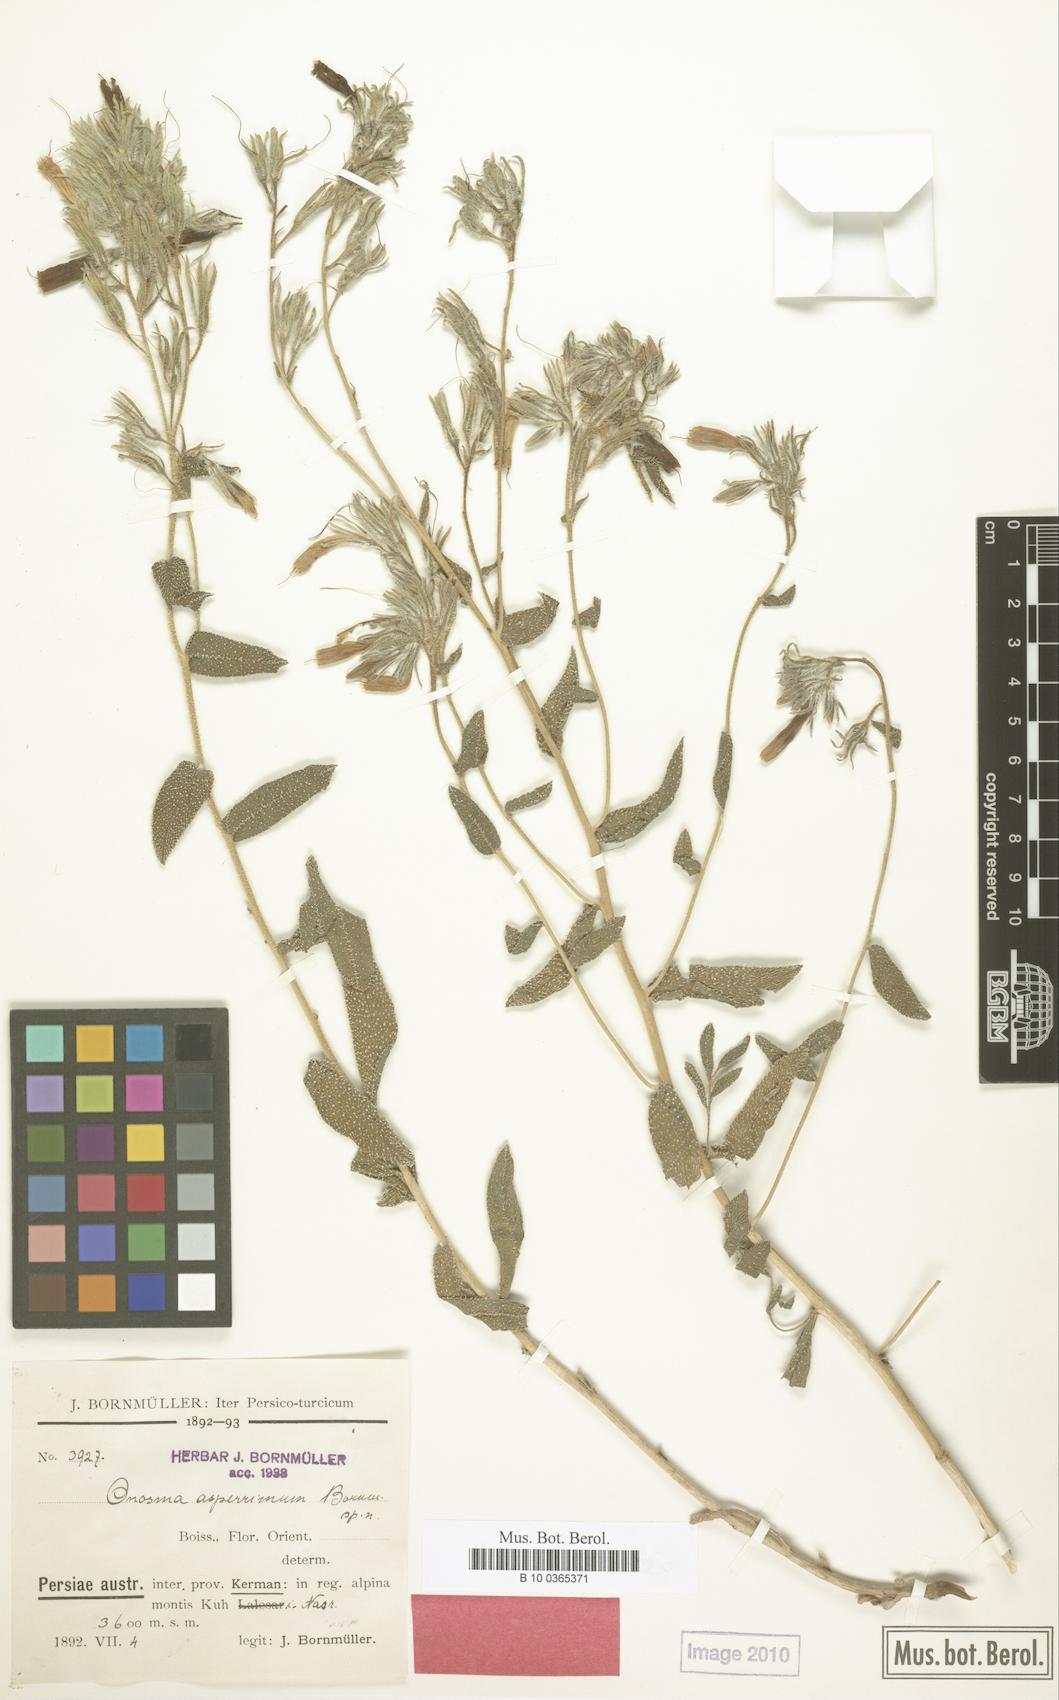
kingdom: Plantae
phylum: Tracheophyta
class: Magnoliopsida
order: Boraginales
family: Boraginaceae
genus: Onosma
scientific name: Onosma asperrima
